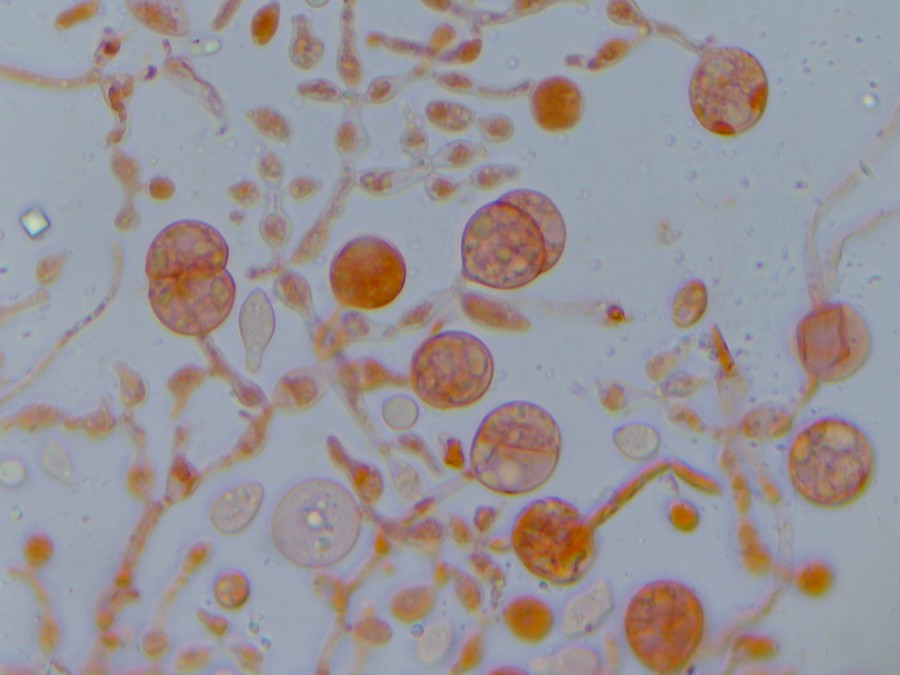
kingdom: Fungi
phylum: Basidiomycota
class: Tremellomycetes
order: Tremellales
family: Tremellaceae
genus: Phaeotremella
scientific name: Phaeotremella simplex
